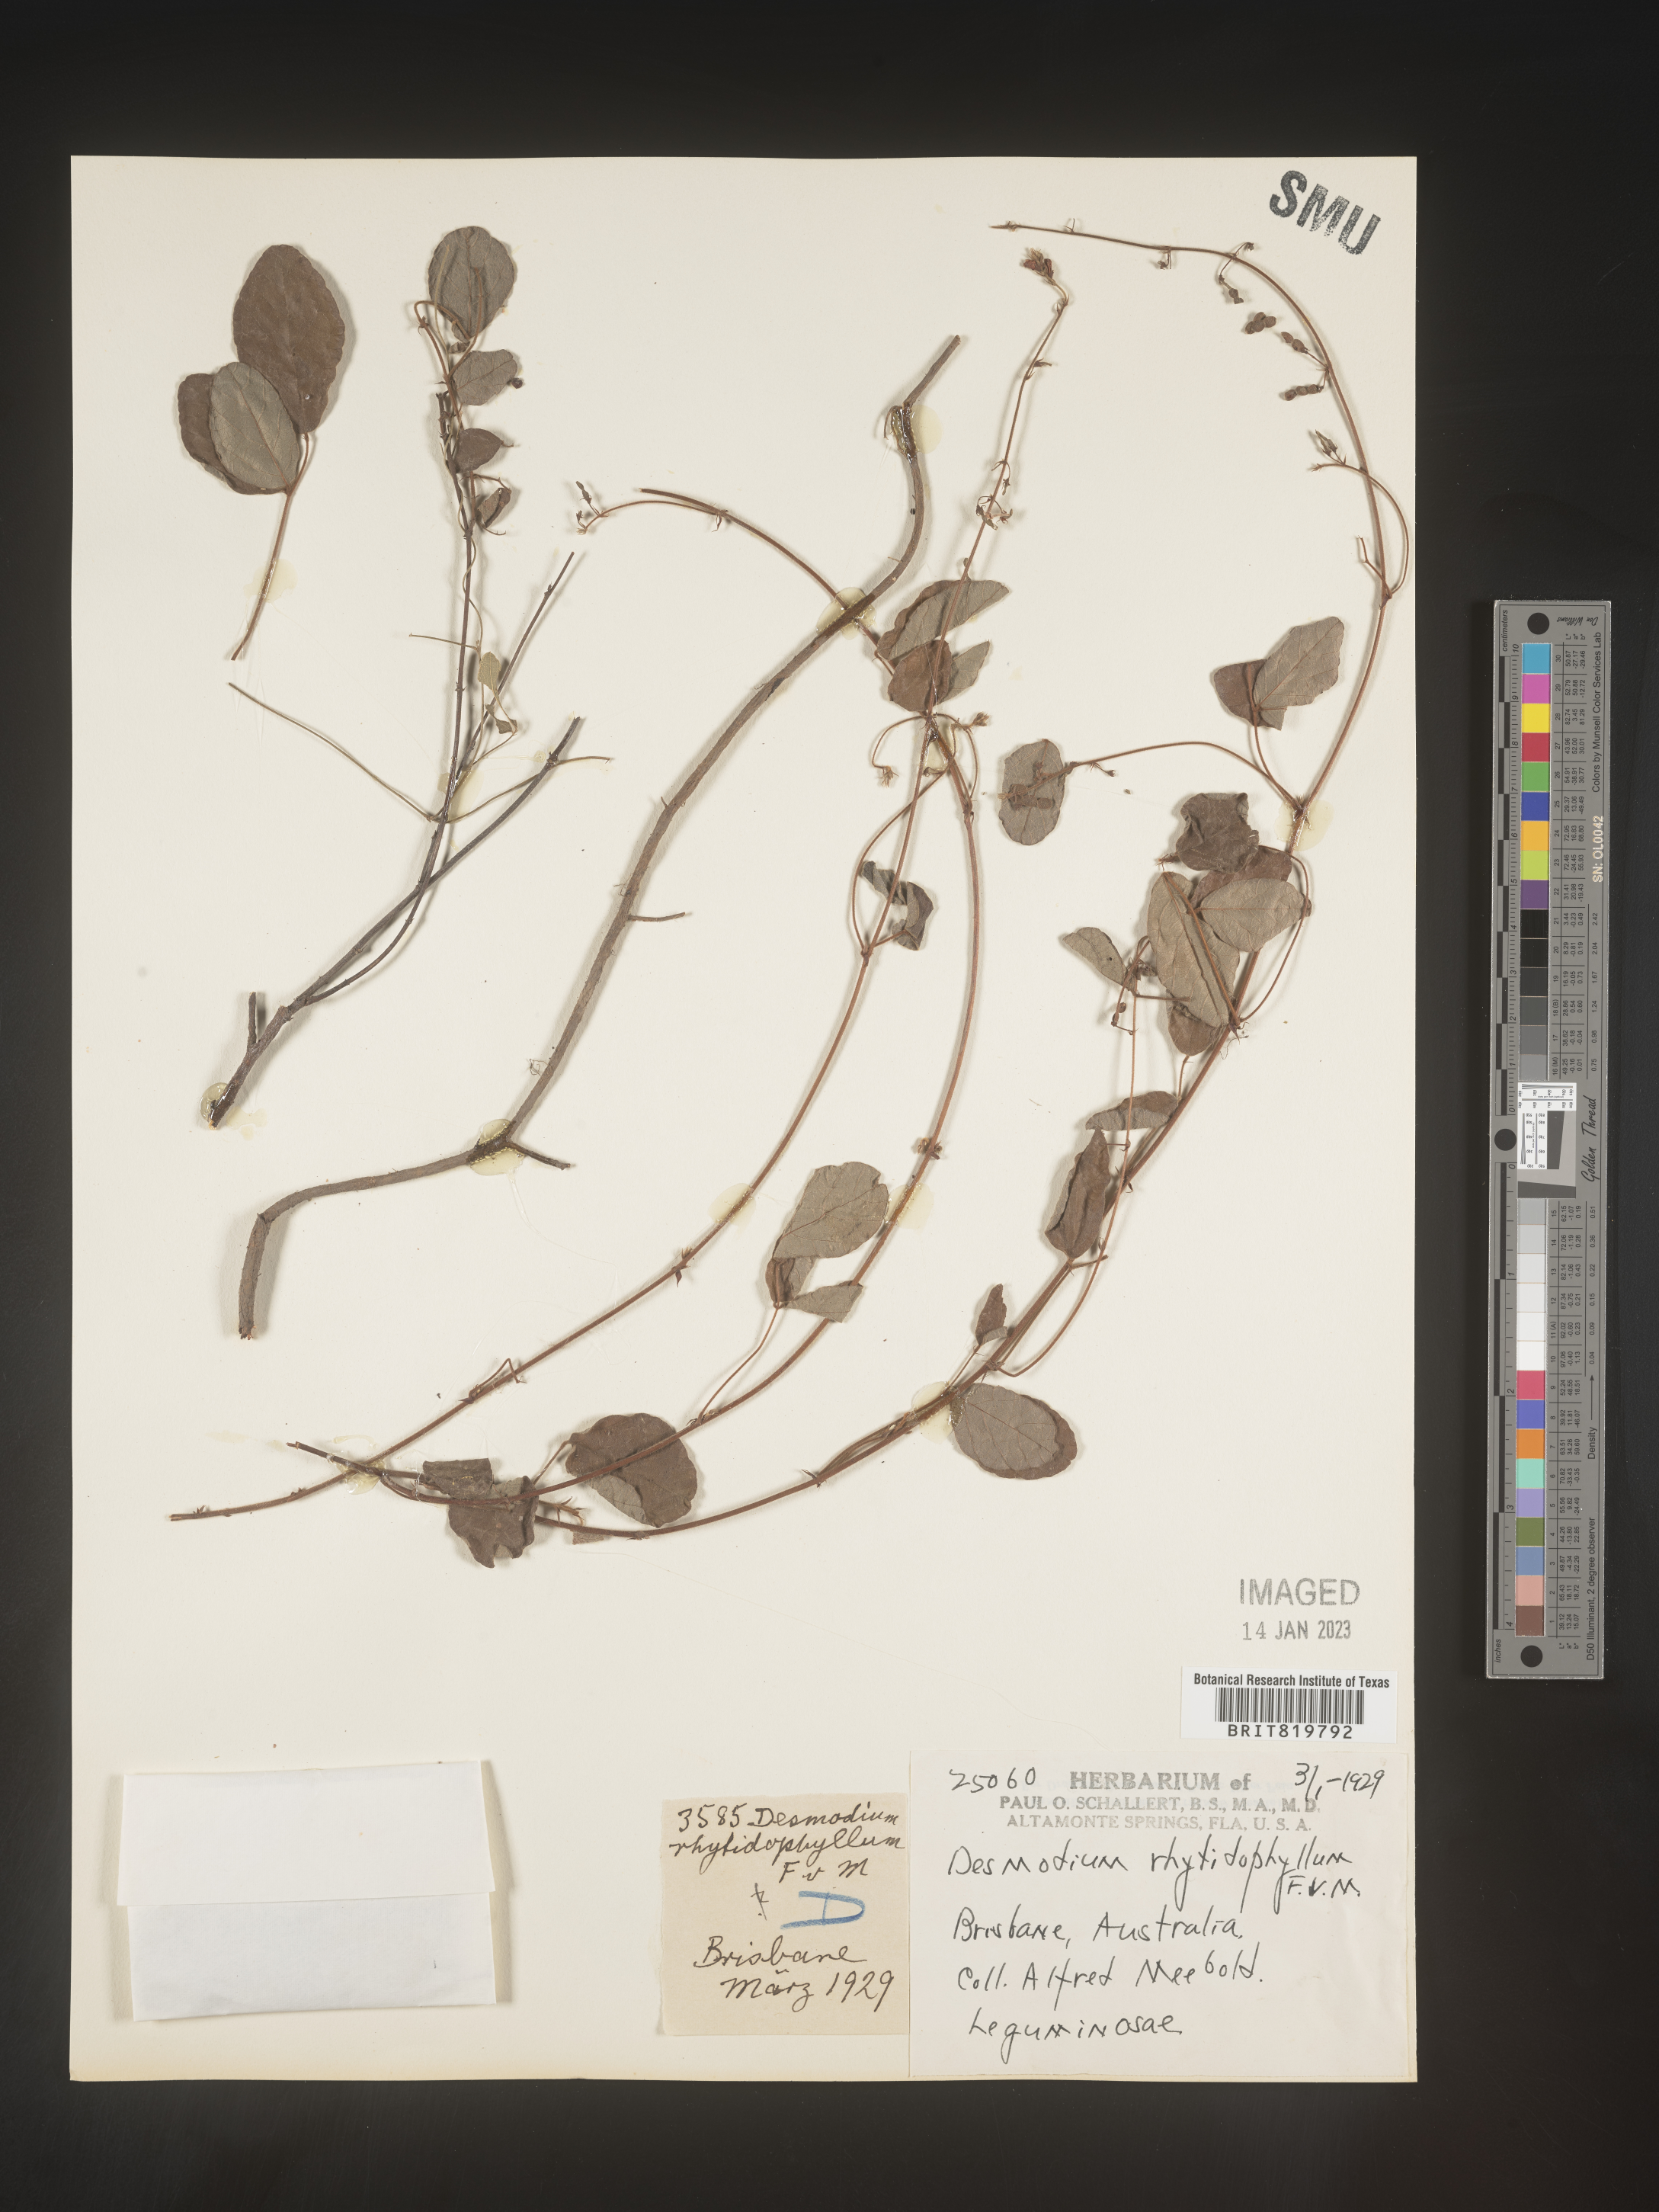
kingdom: Plantae
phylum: Tracheophyta
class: Magnoliopsida
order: Fabales
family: Fabaceae
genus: Desmodium
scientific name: Desmodium
